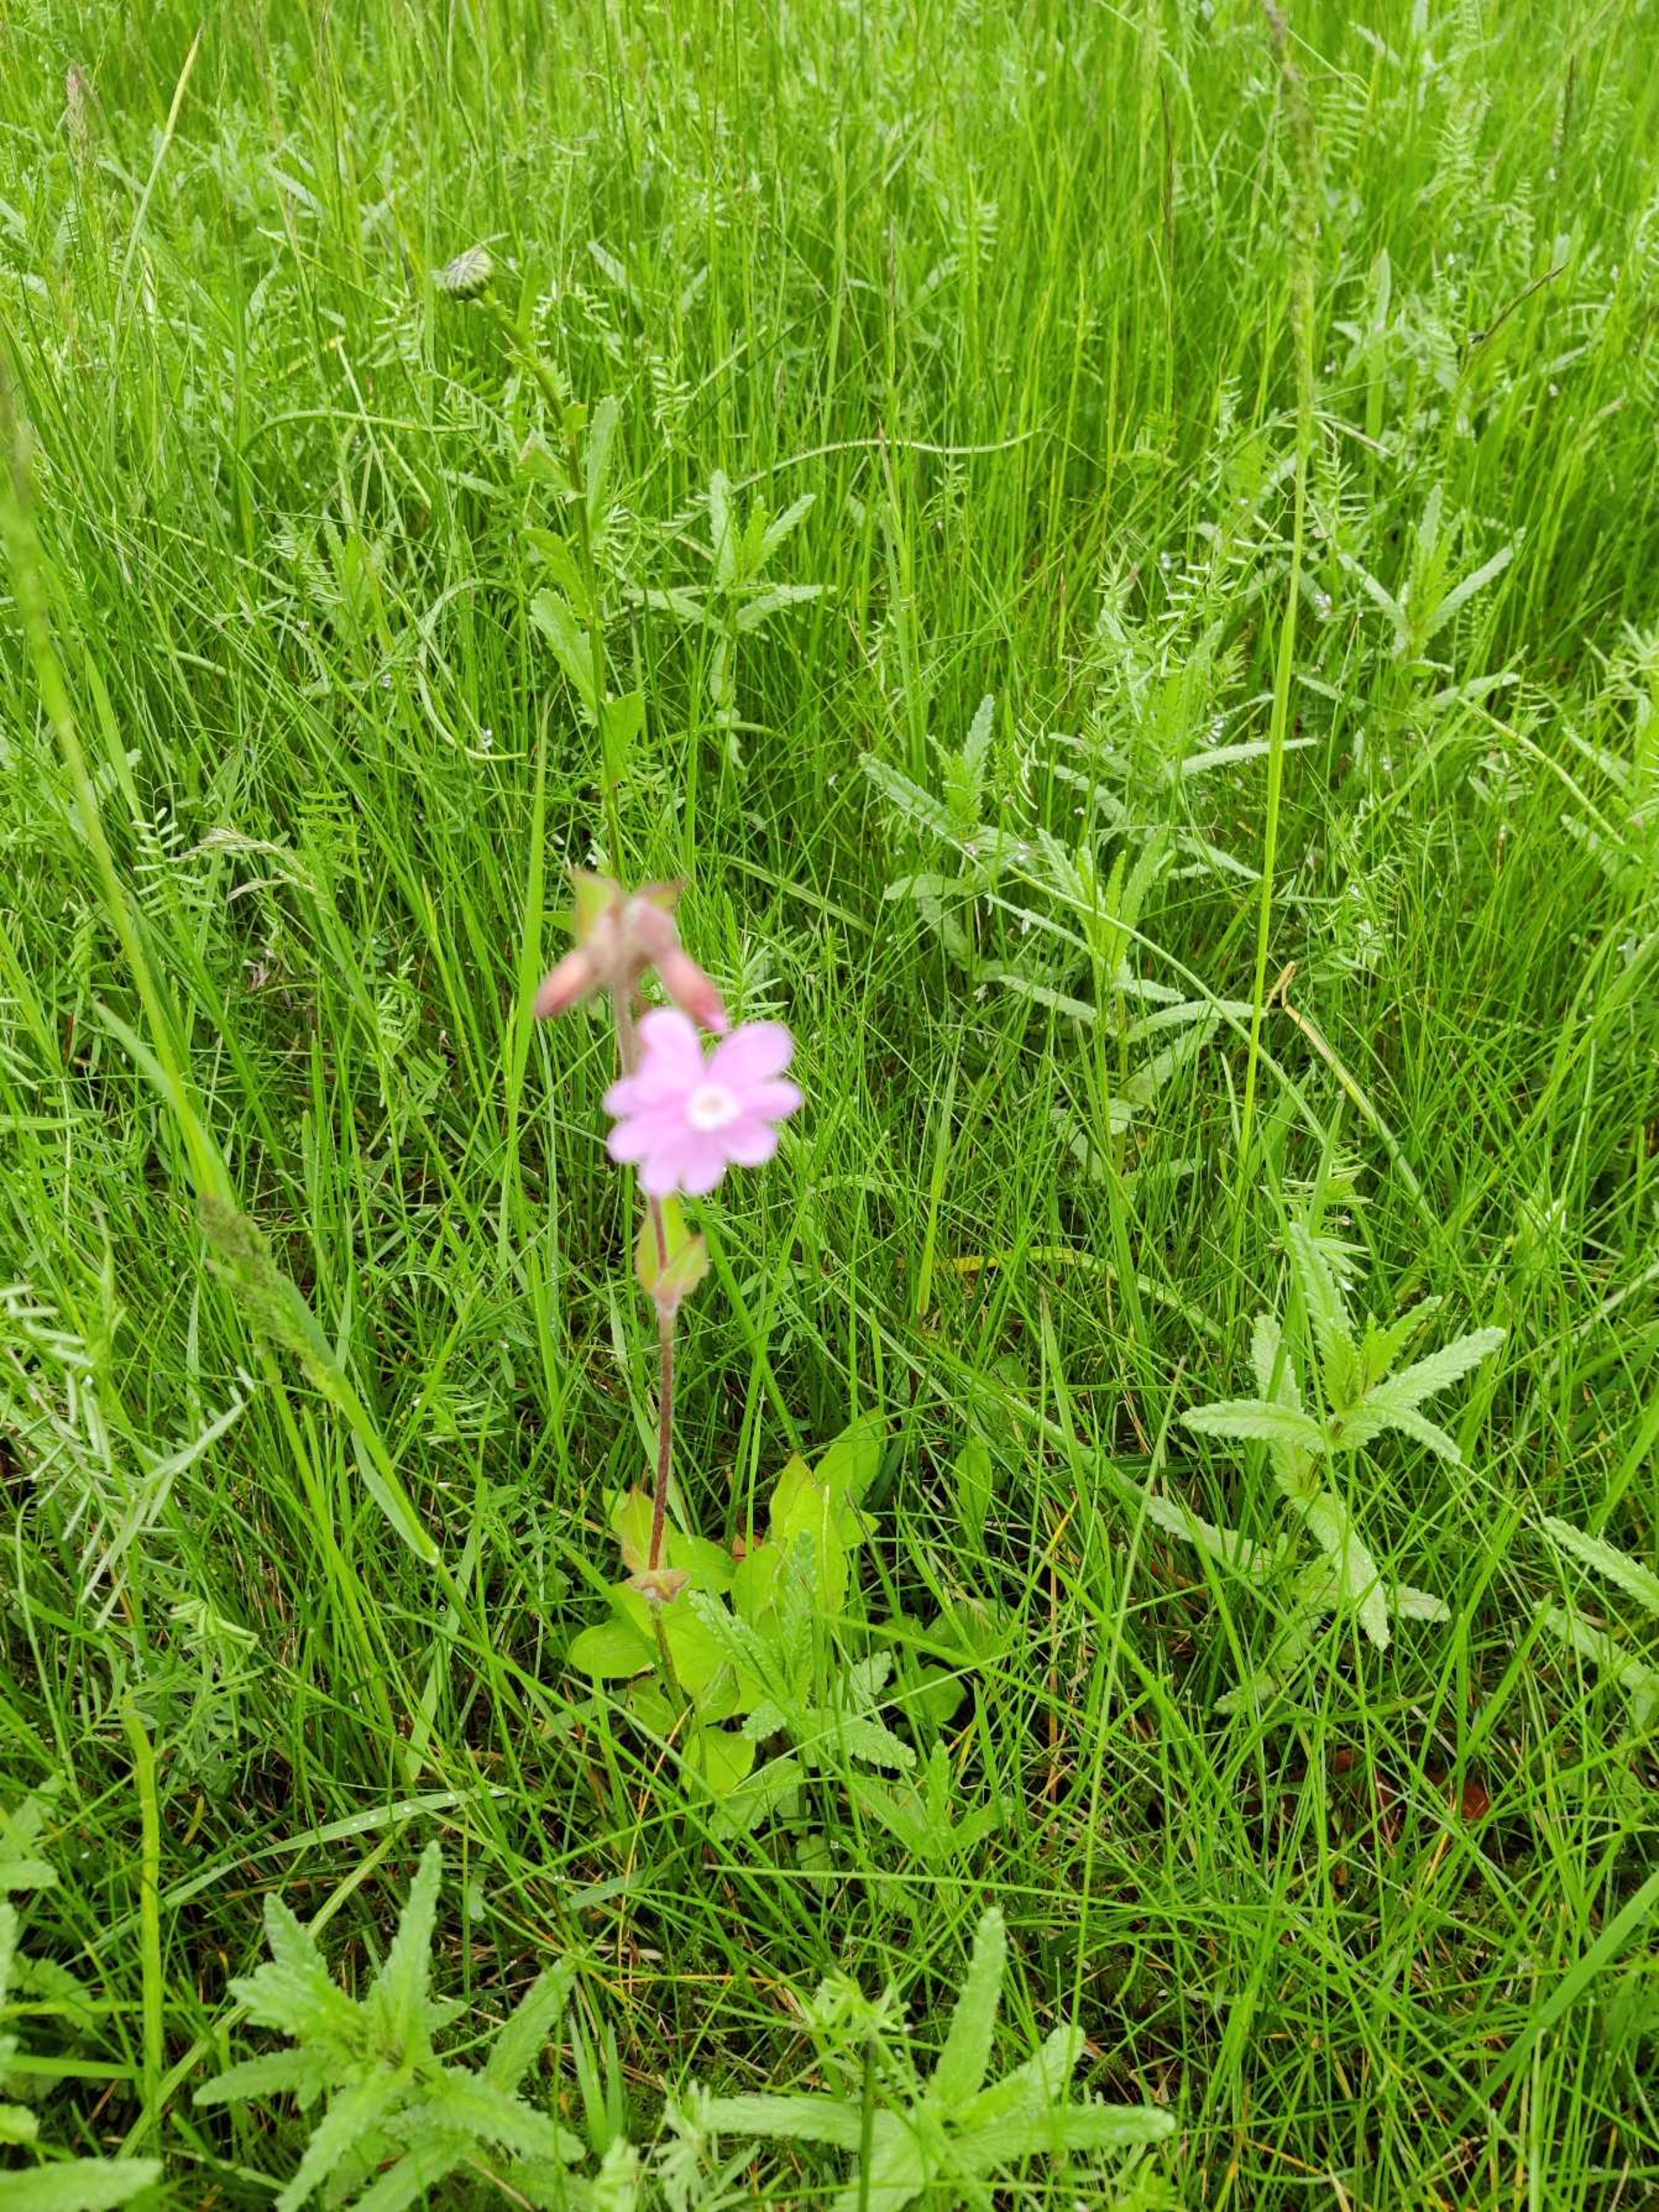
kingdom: Plantae
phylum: Tracheophyta
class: Magnoliopsida
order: Caryophyllales
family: Caryophyllaceae
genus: Silene
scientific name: Silene dioica
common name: Dagpragtstjerne
